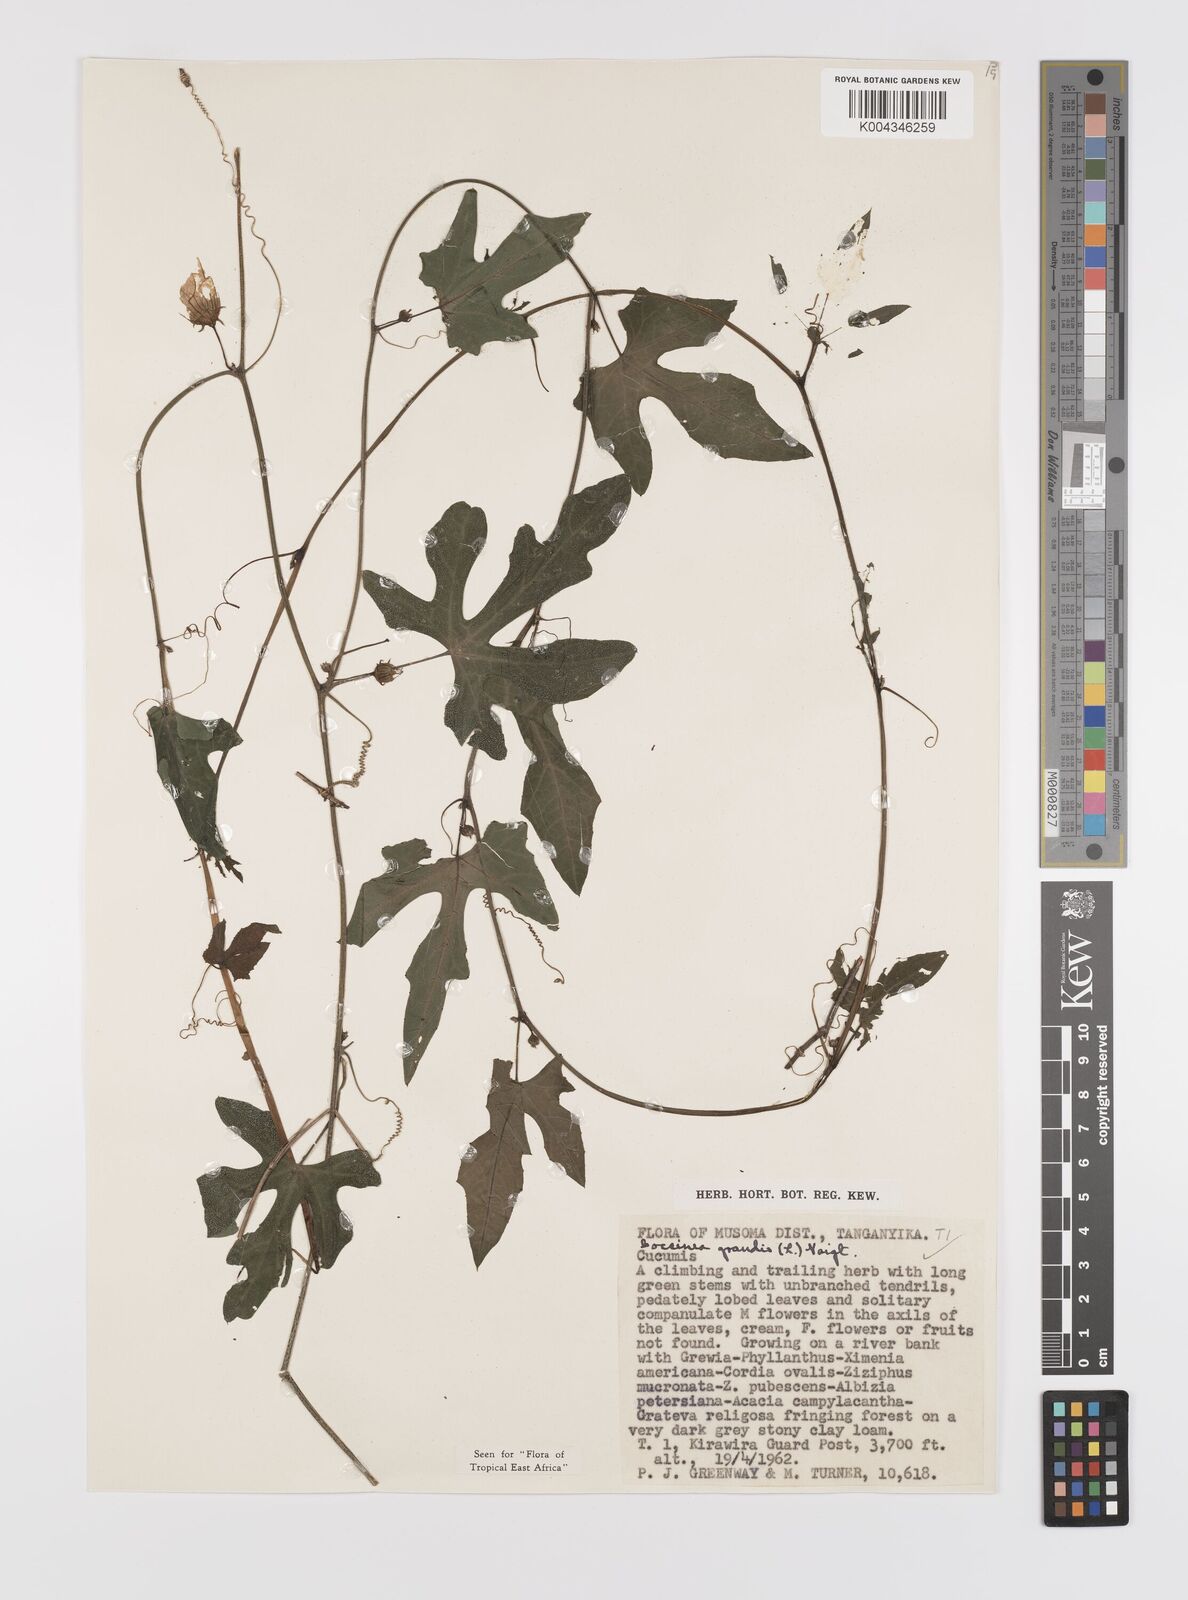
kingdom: Plantae
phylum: Tracheophyta
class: Magnoliopsida
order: Cucurbitales
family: Cucurbitaceae
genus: Coccinia
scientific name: Coccinia grandis
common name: Ivy gourd
